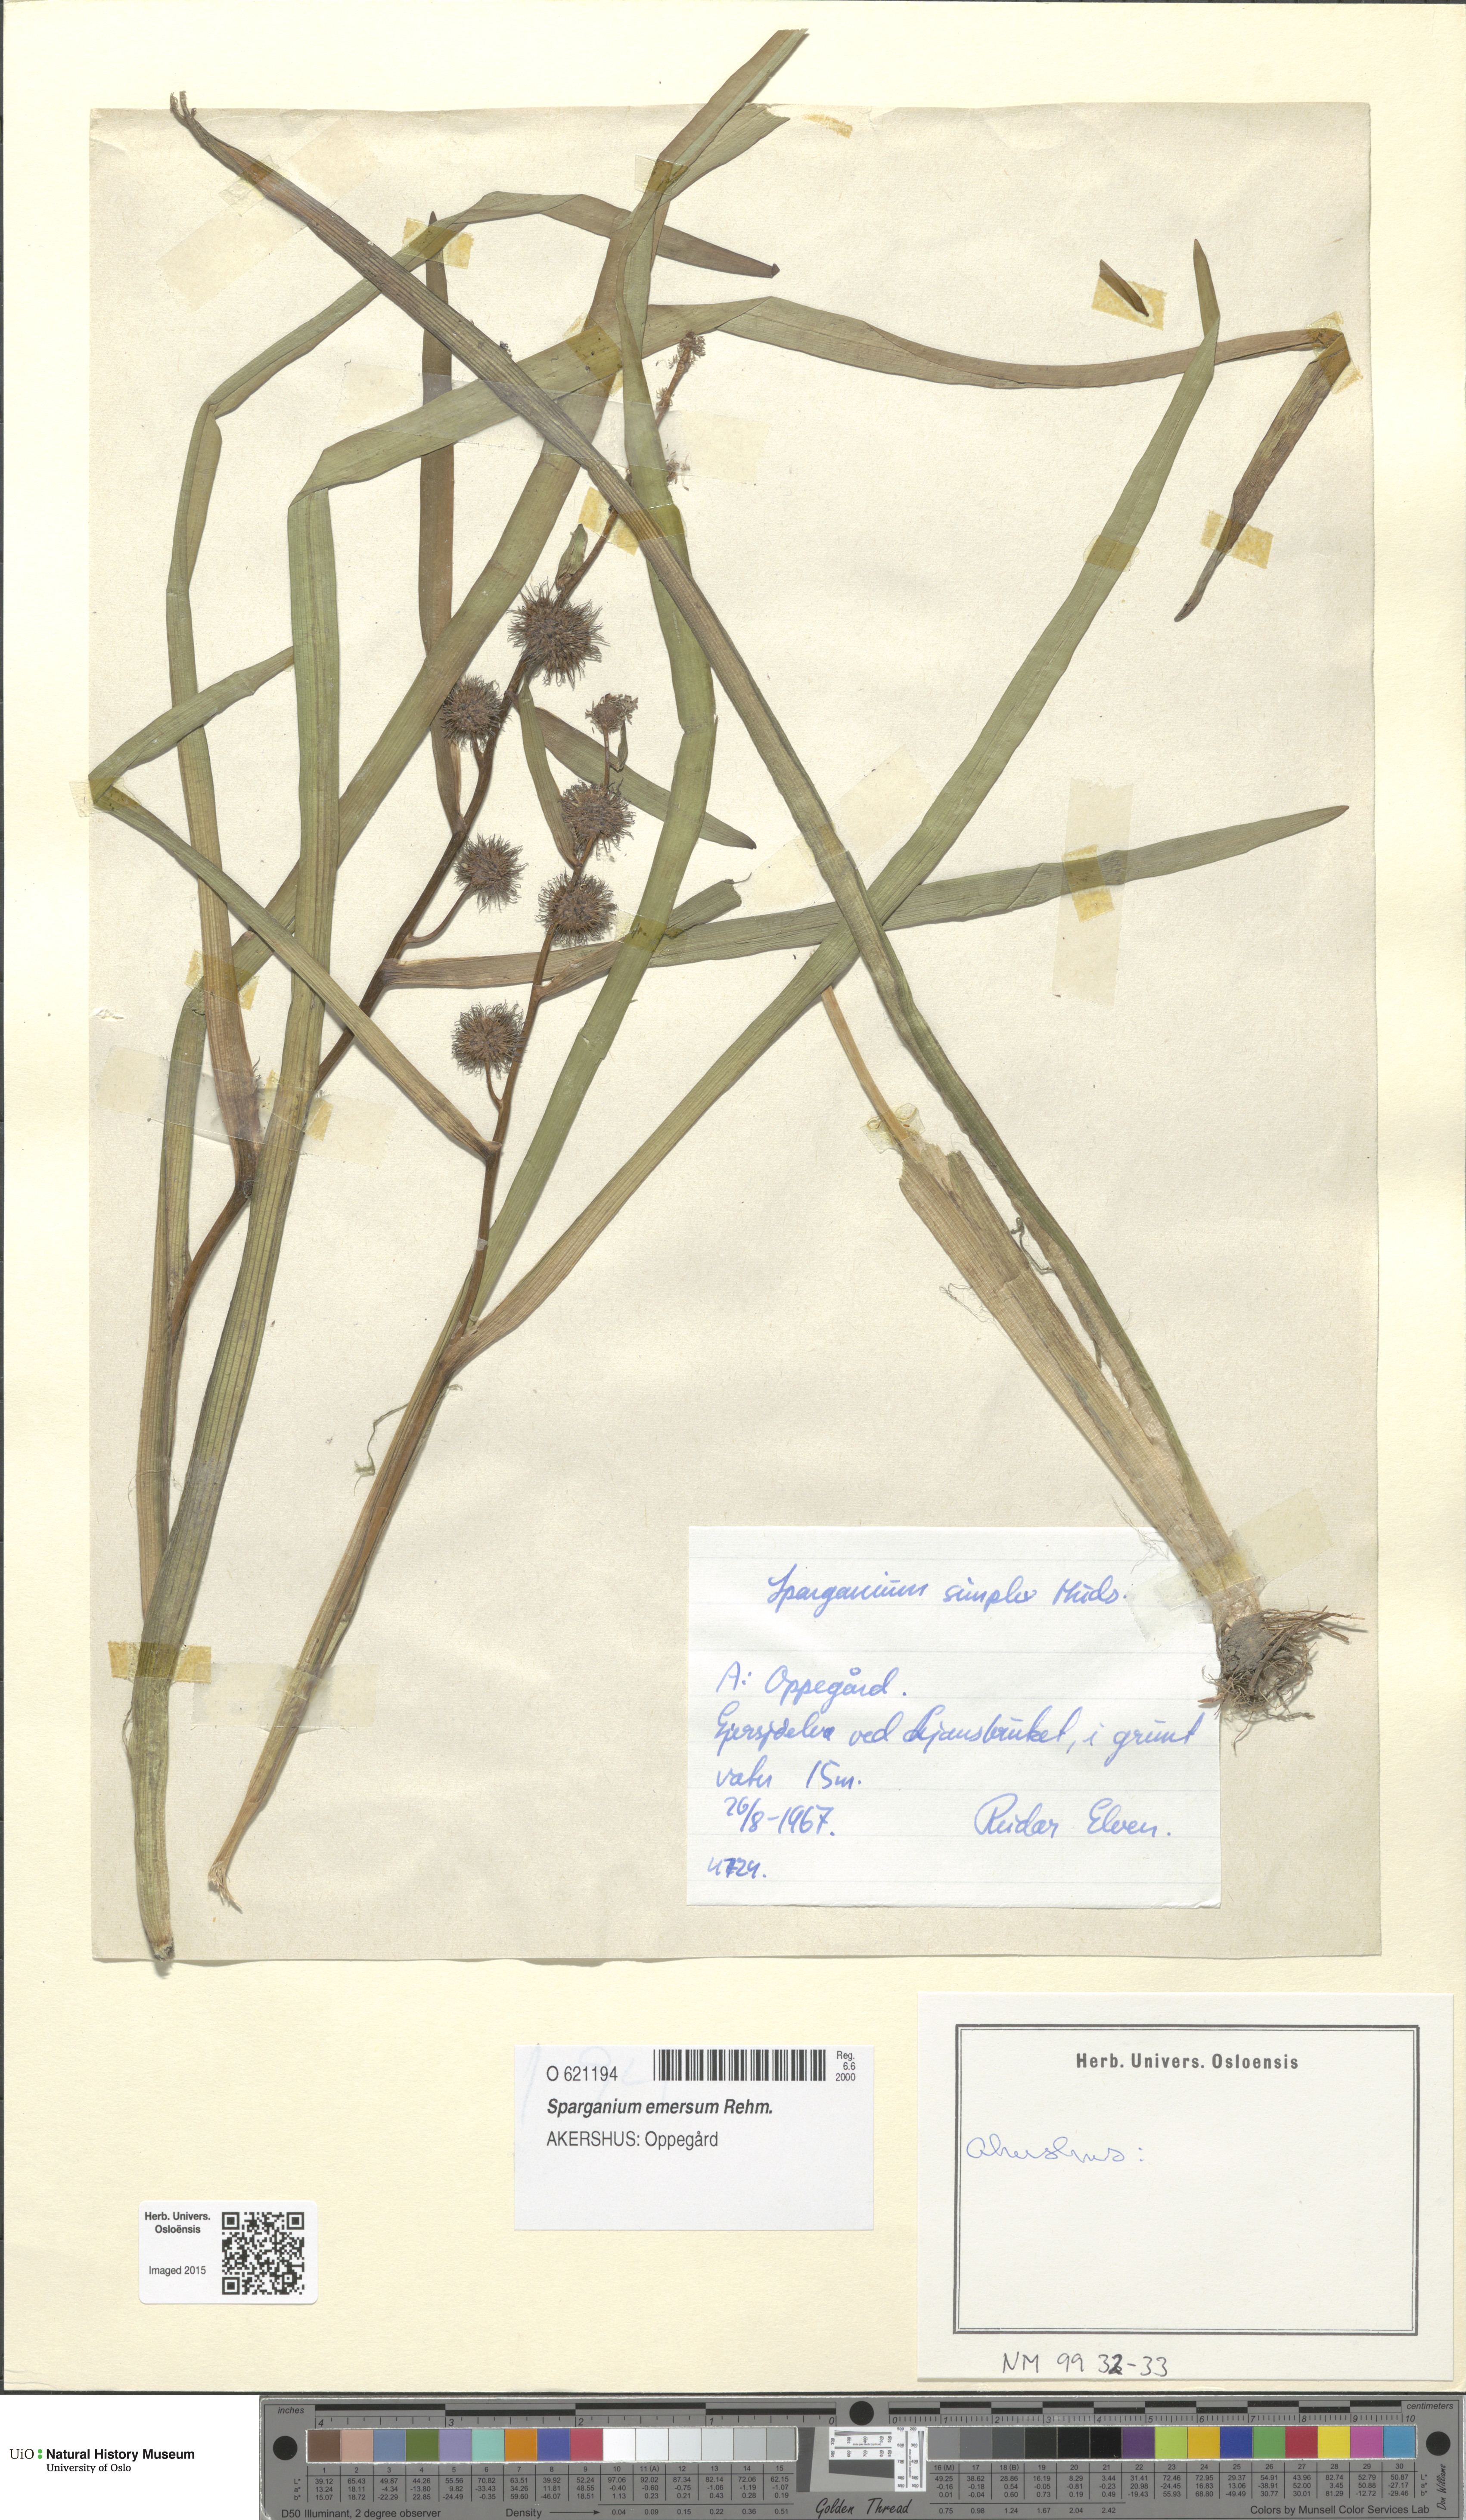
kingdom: Plantae
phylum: Tracheophyta
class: Liliopsida
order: Poales
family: Typhaceae
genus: Sparganium
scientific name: Sparganium emersum
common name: Unbranched bur-reed
